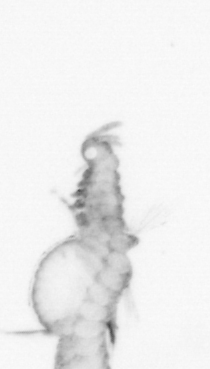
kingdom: Animalia
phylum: Annelida
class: Polychaeta
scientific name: Polychaeta
